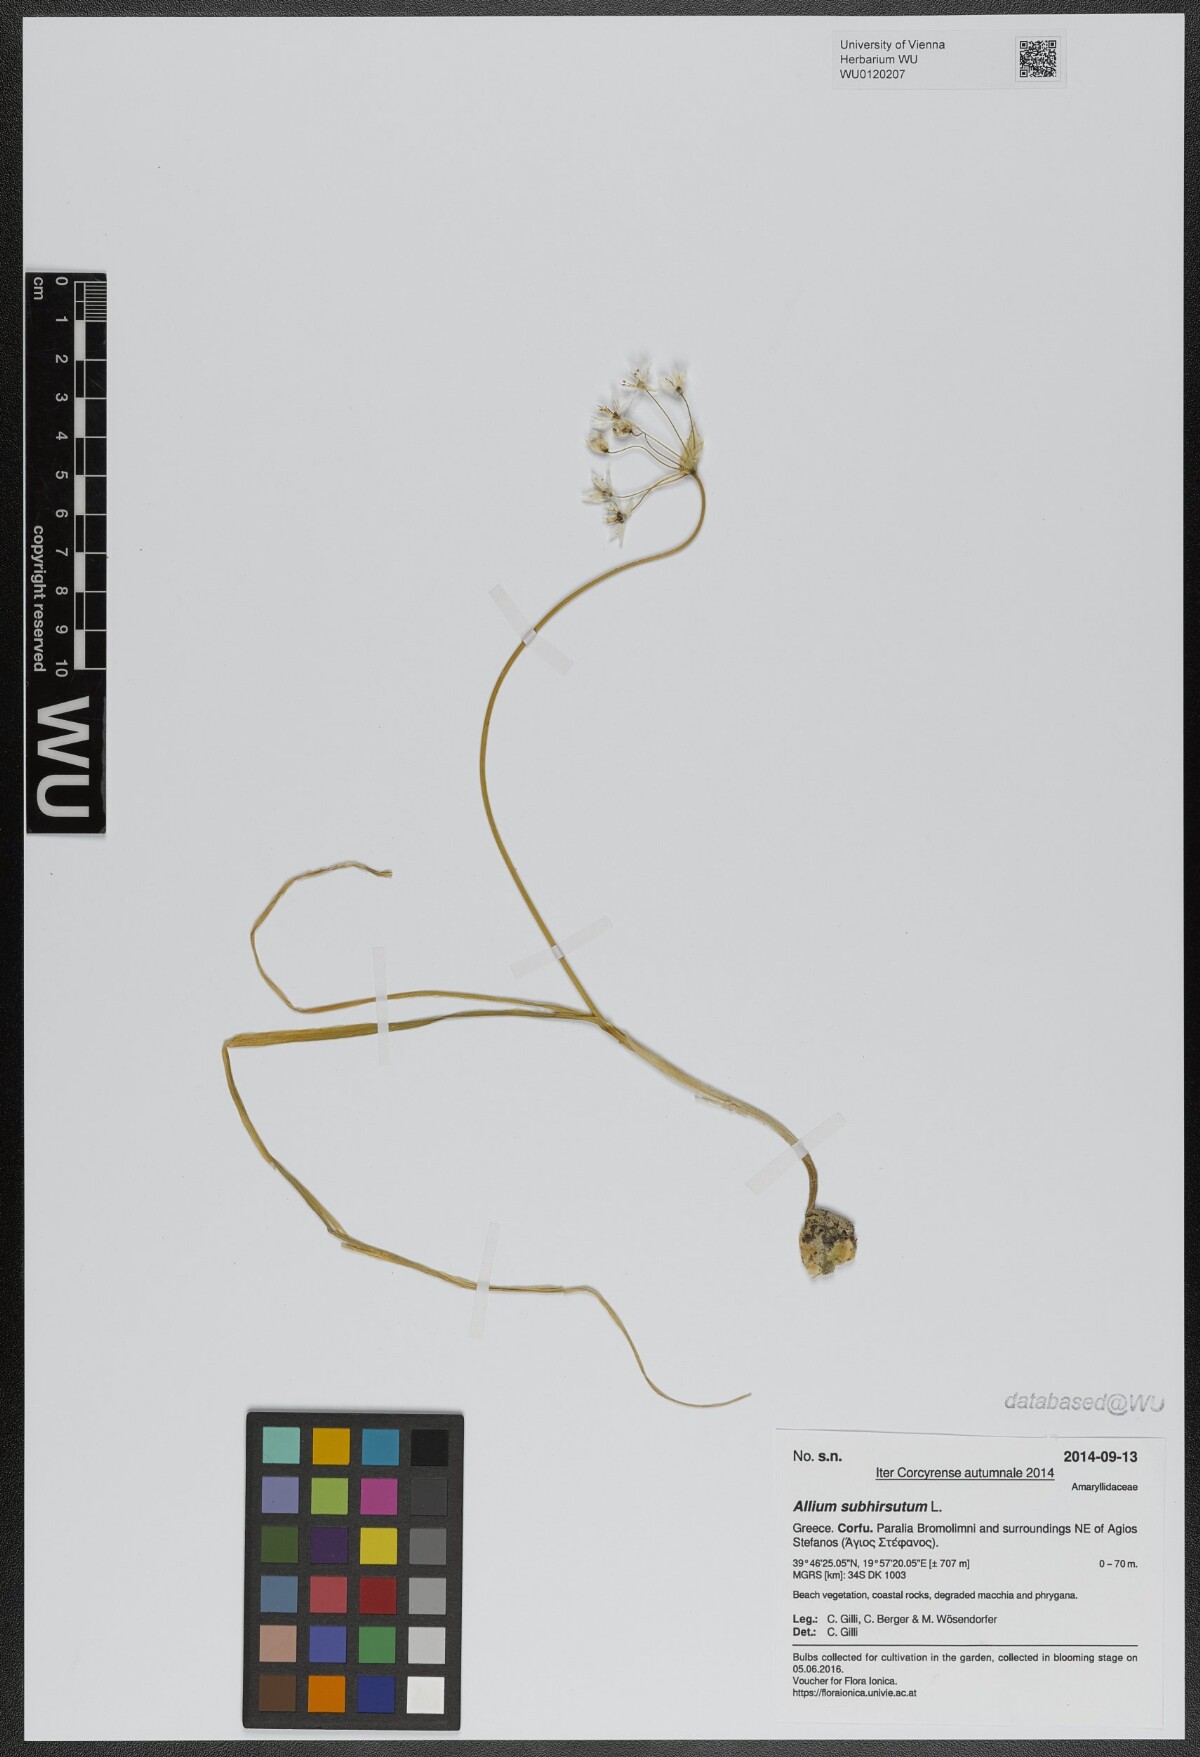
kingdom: Plantae
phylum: Tracheophyta
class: Liliopsida
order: Asparagales
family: Amaryllidaceae
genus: Allium
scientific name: Allium subhirsutum
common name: Hairy garlic
